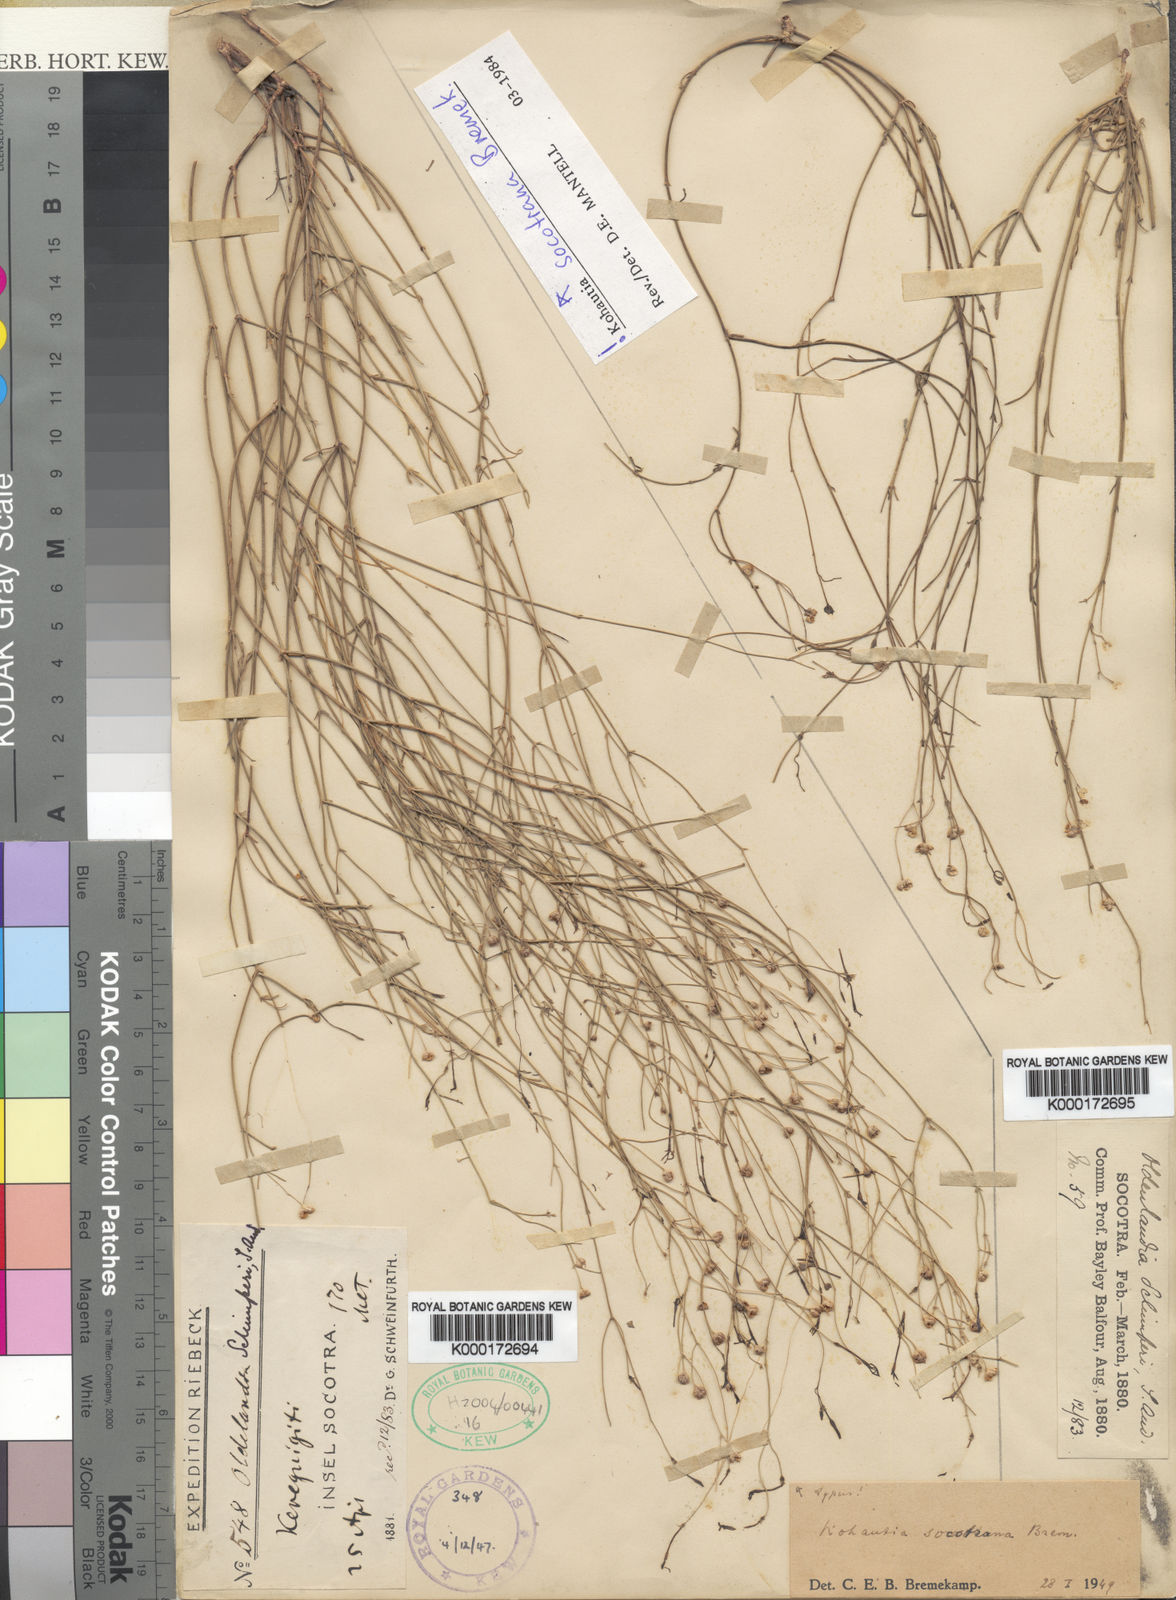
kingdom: Plantae
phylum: Tracheophyta
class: Magnoliopsida
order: Gentianales
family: Rubiaceae
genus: Kohautia
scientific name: Kohautia socotrana
